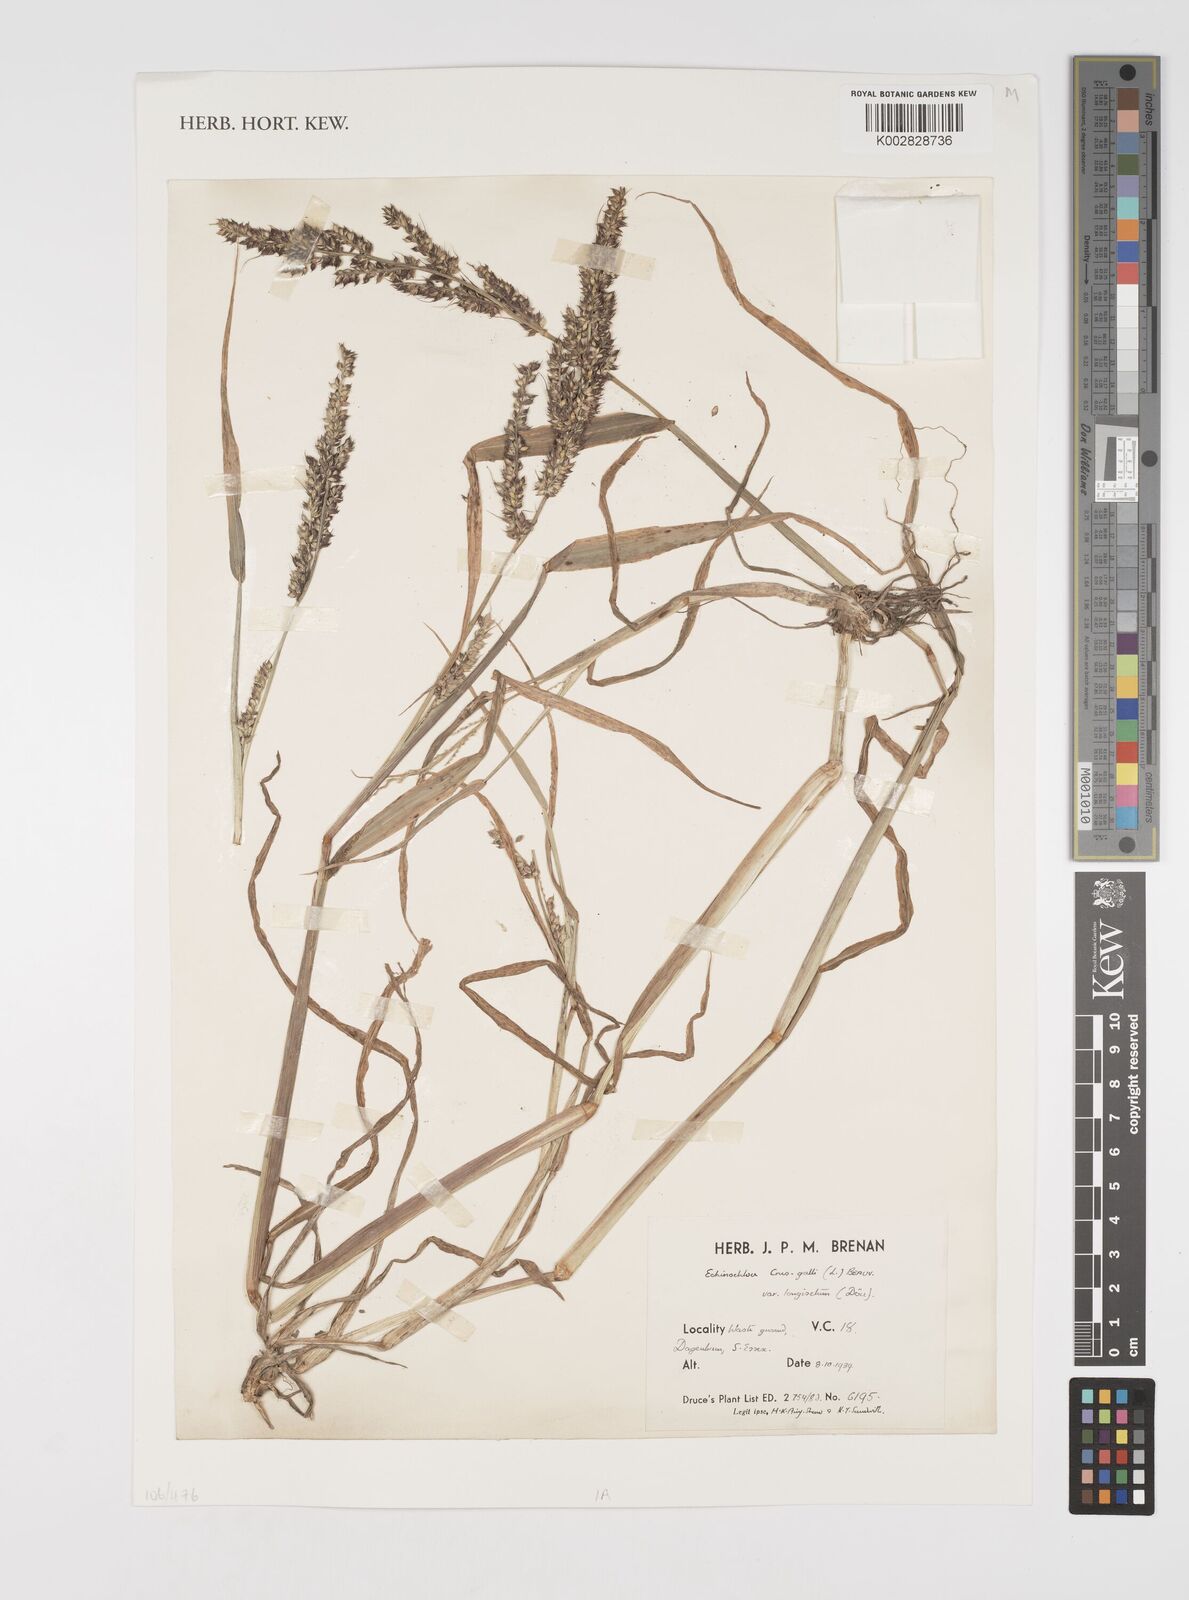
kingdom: Plantae
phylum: Tracheophyta
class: Liliopsida
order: Poales
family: Poaceae
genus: Echinochloa
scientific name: Echinochloa crus-galli
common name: Cockspur
